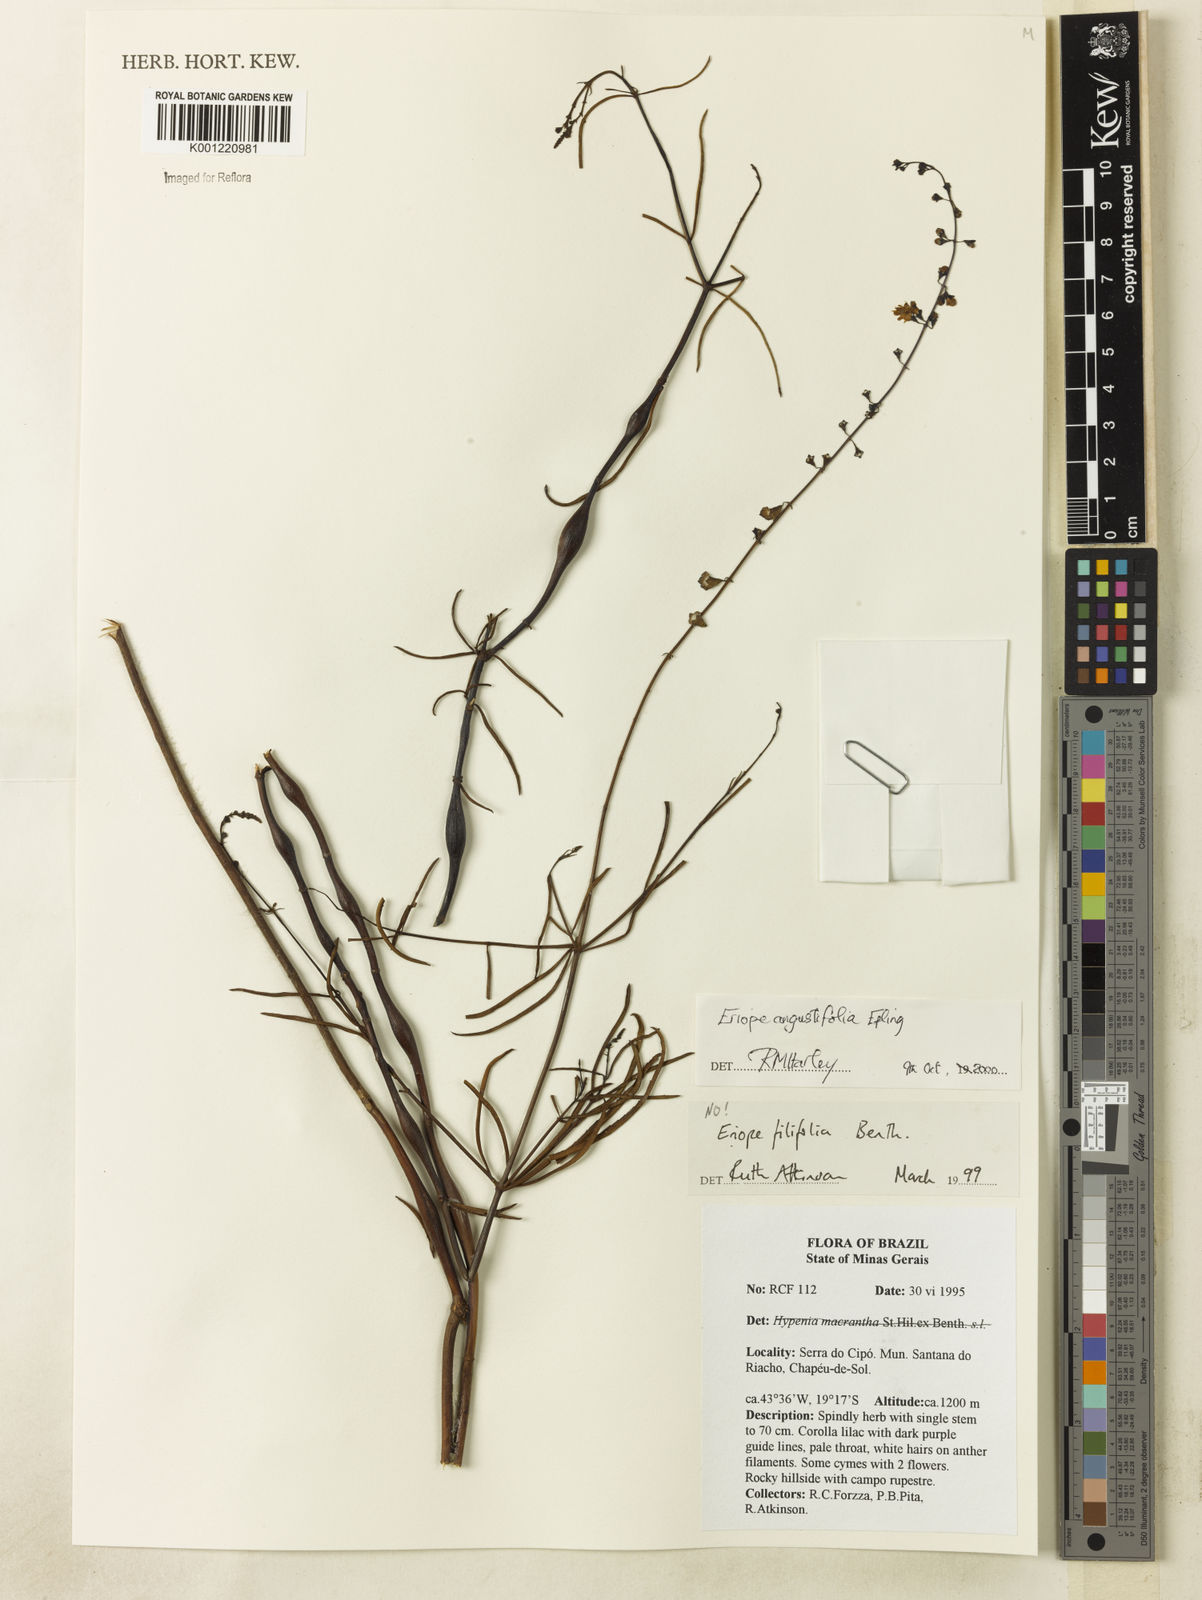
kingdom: Plantae
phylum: Tracheophyta
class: Magnoliopsida
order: Lamiales
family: Lamiaceae
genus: Eriope
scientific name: Eriope angustifolia
